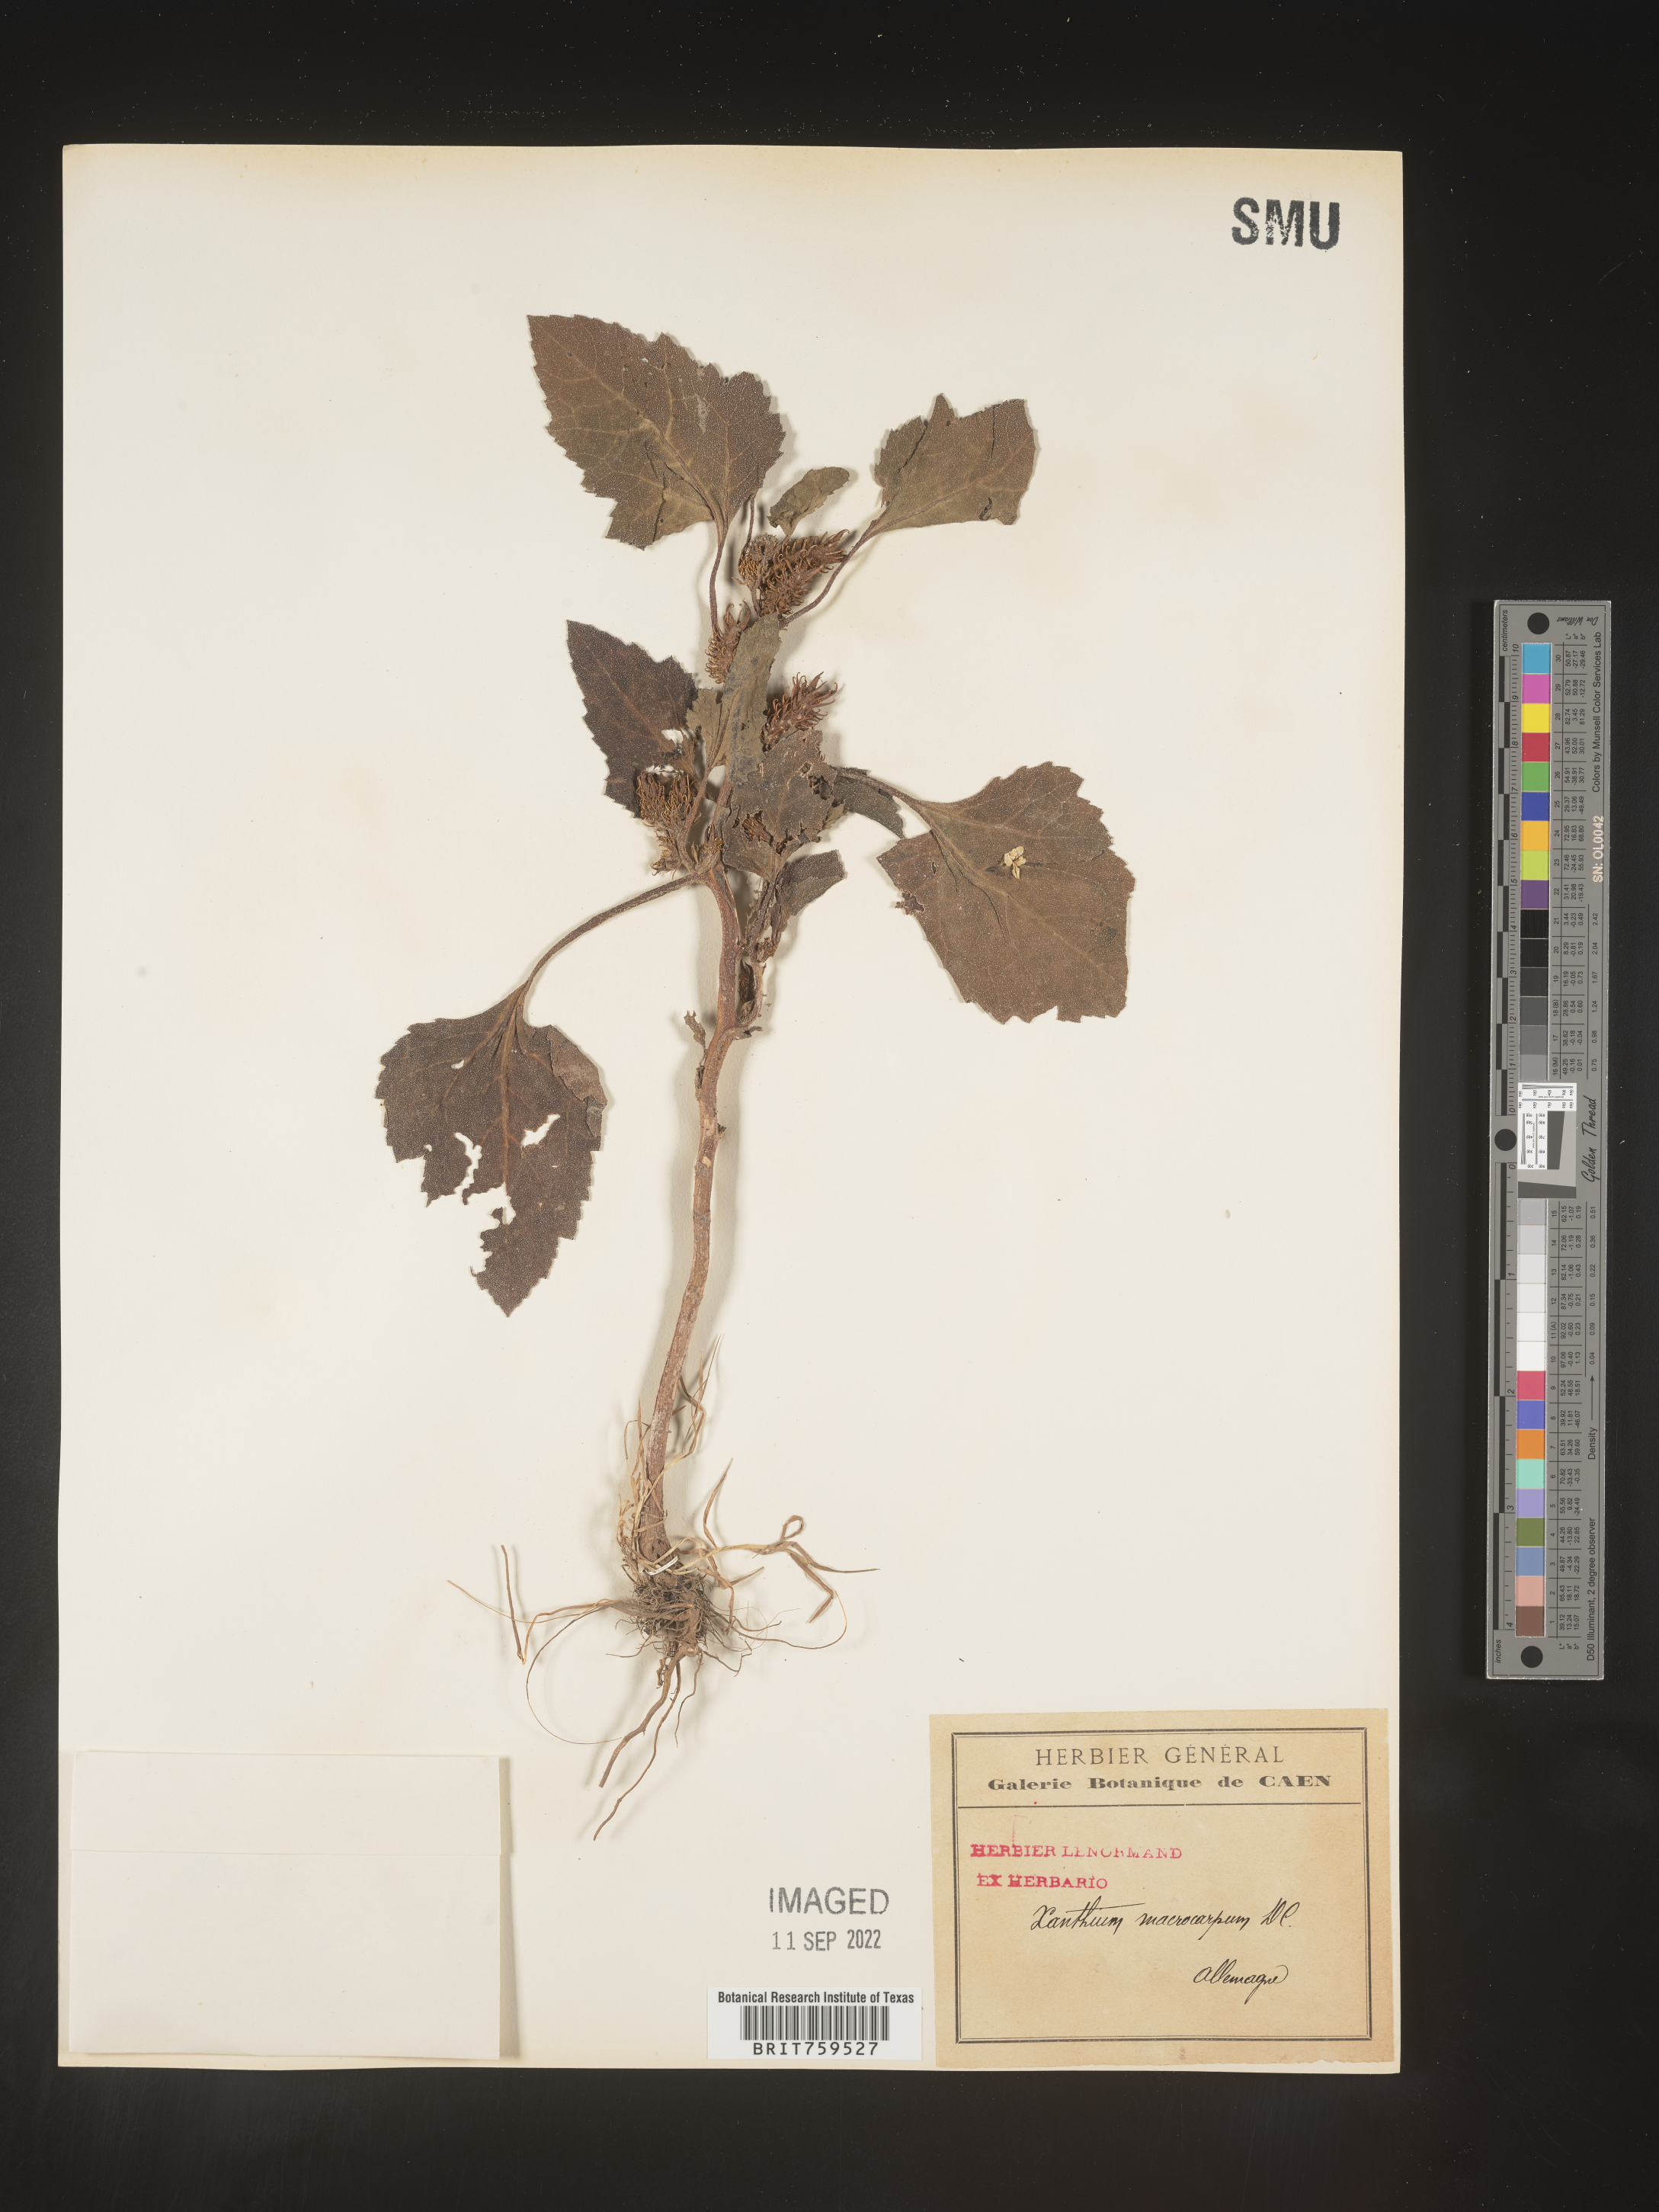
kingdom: Plantae
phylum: Tracheophyta
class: Magnoliopsida
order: Asterales
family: Asteraceae
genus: Xanthium
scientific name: Xanthium
